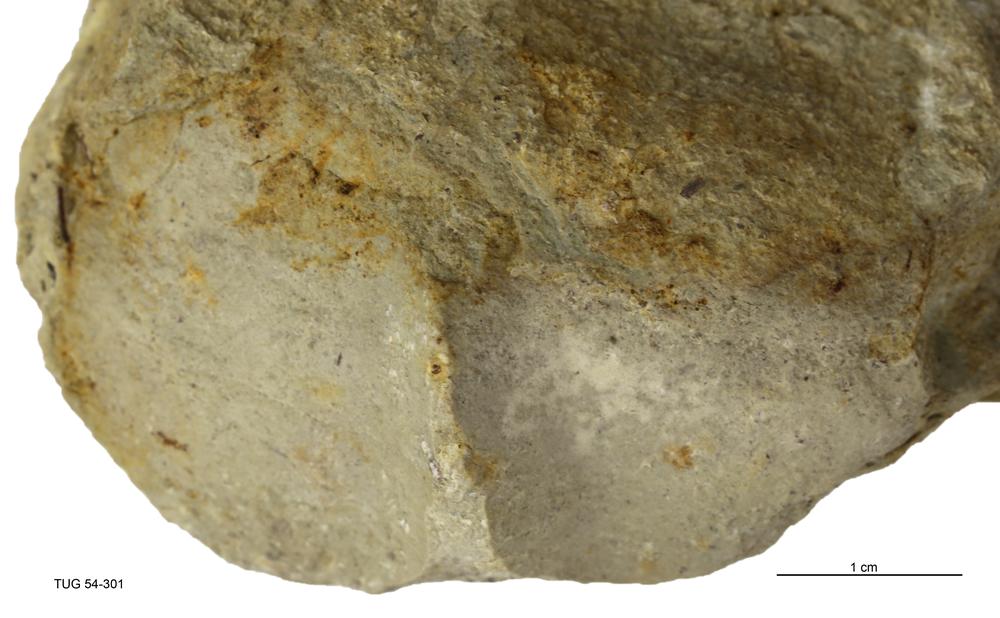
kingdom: Animalia
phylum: Mollusca
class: Gastropoda
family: Pterothecidae
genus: Pterotheca
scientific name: Pterotheca Aulacomerella lata
